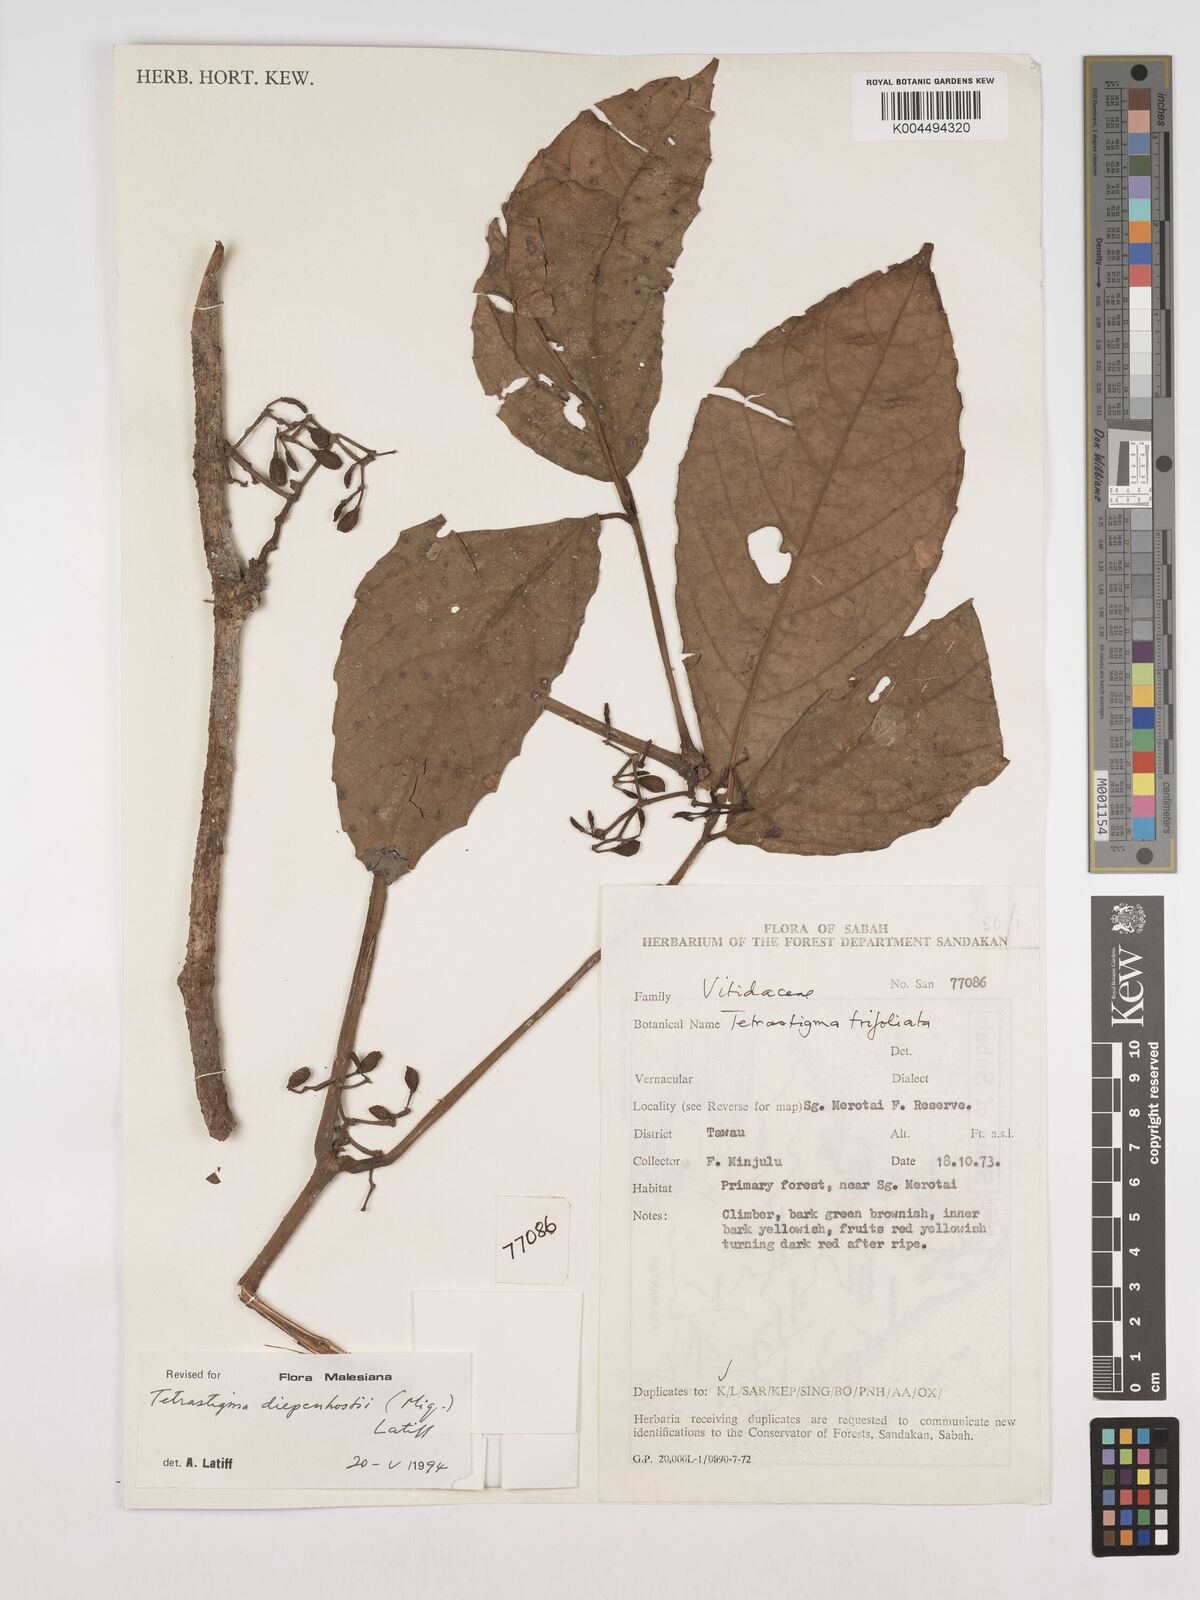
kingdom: Plantae
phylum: Tracheophyta
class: Magnoliopsida
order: Vitales
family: Vitaceae
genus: Tetrastigma
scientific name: Tetrastigma trifoliolatum
